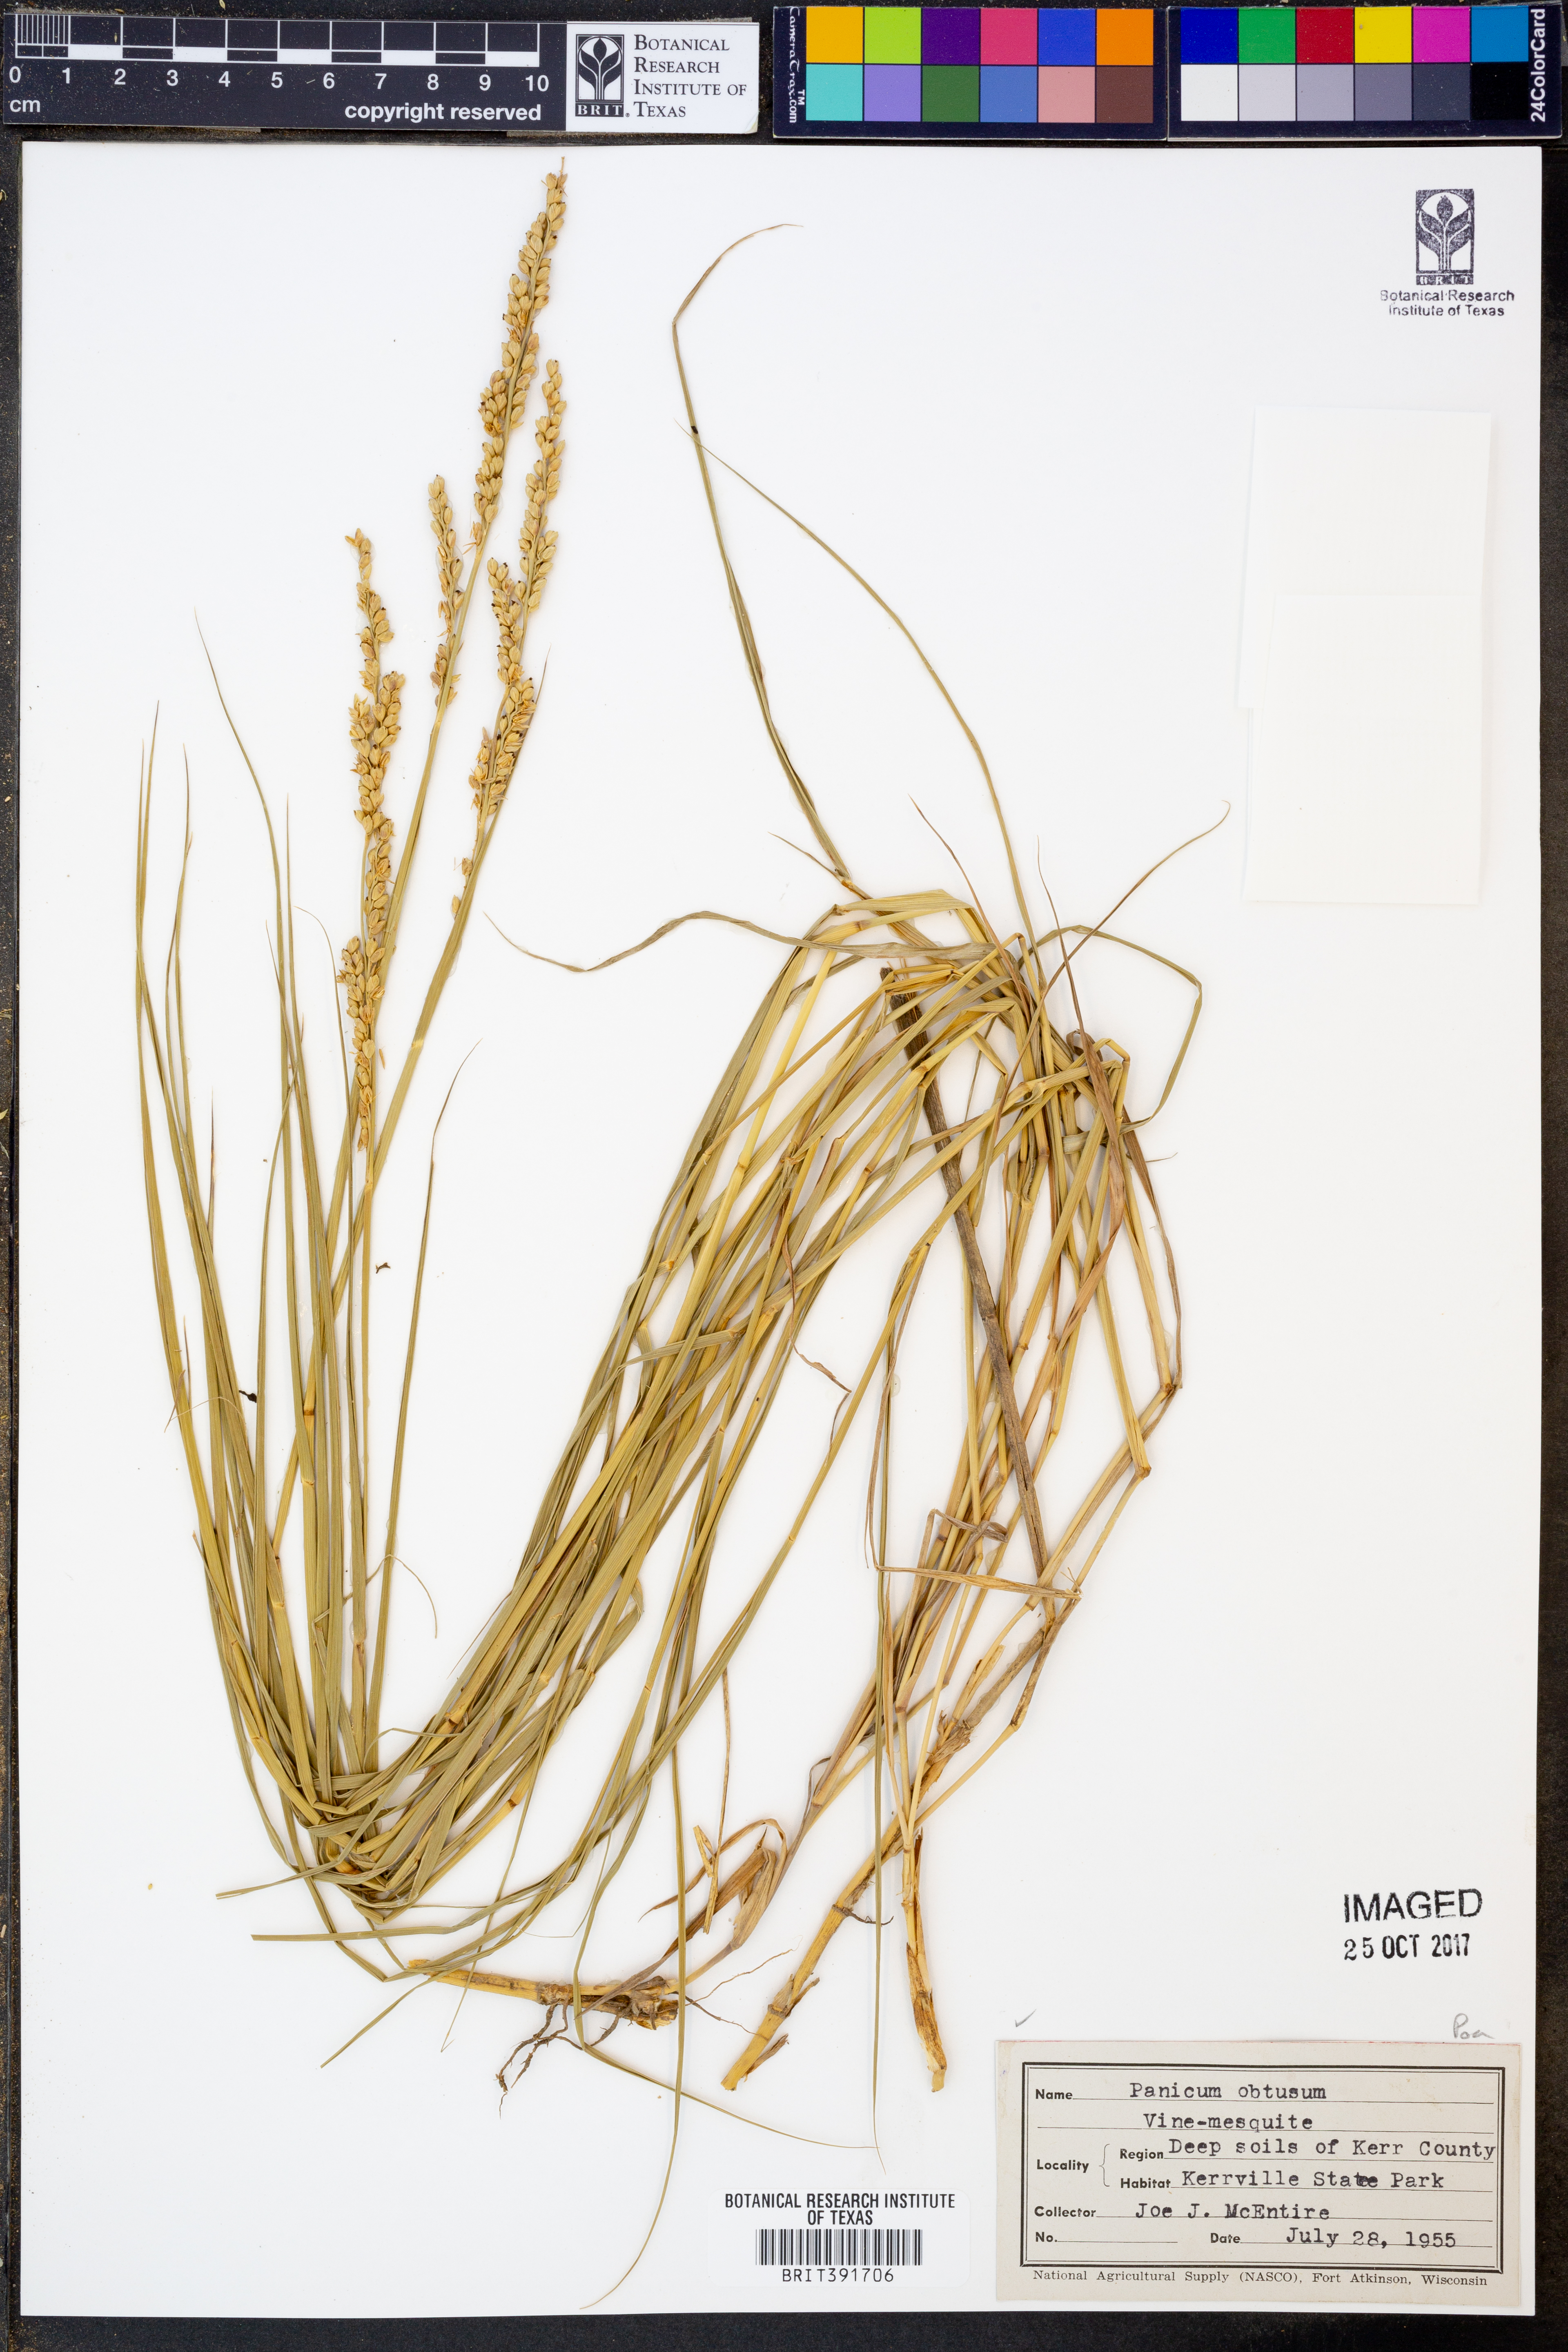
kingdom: Plantae
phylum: Tracheophyta
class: Liliopsida
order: Poales
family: Poaceae
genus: Hopia
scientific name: Hopia obtusa
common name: Vine-mesquite
